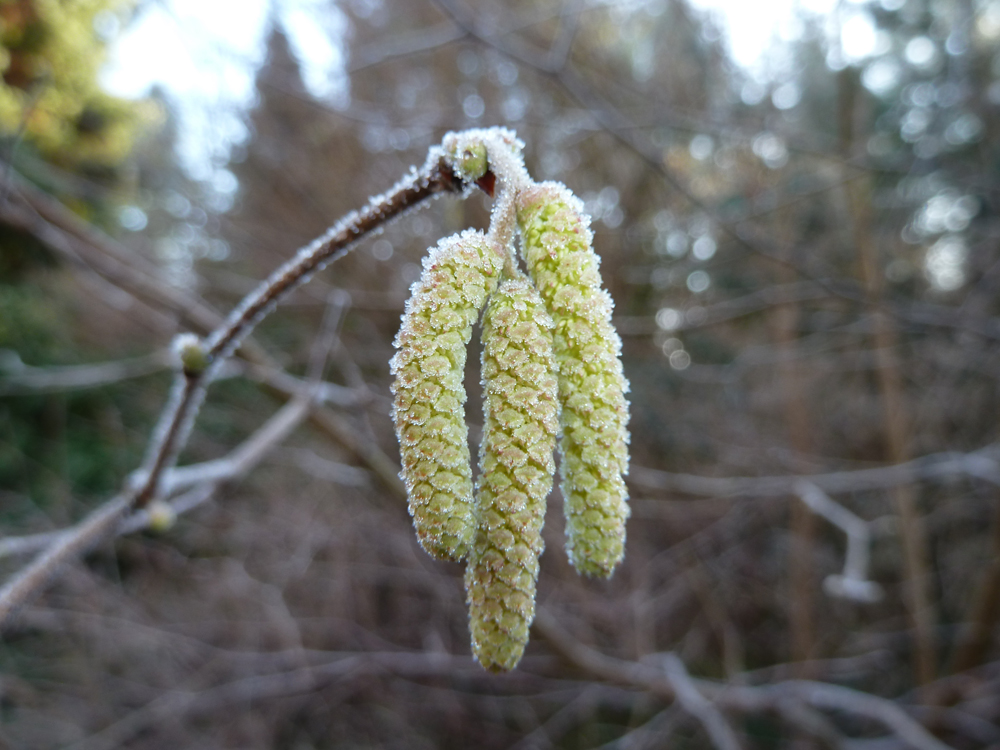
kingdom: Plantae
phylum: Tracheophyta
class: Magnoliopsida
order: Fagales
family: Betulaceae
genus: Corylus
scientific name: Corylus avellana
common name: European hazel
